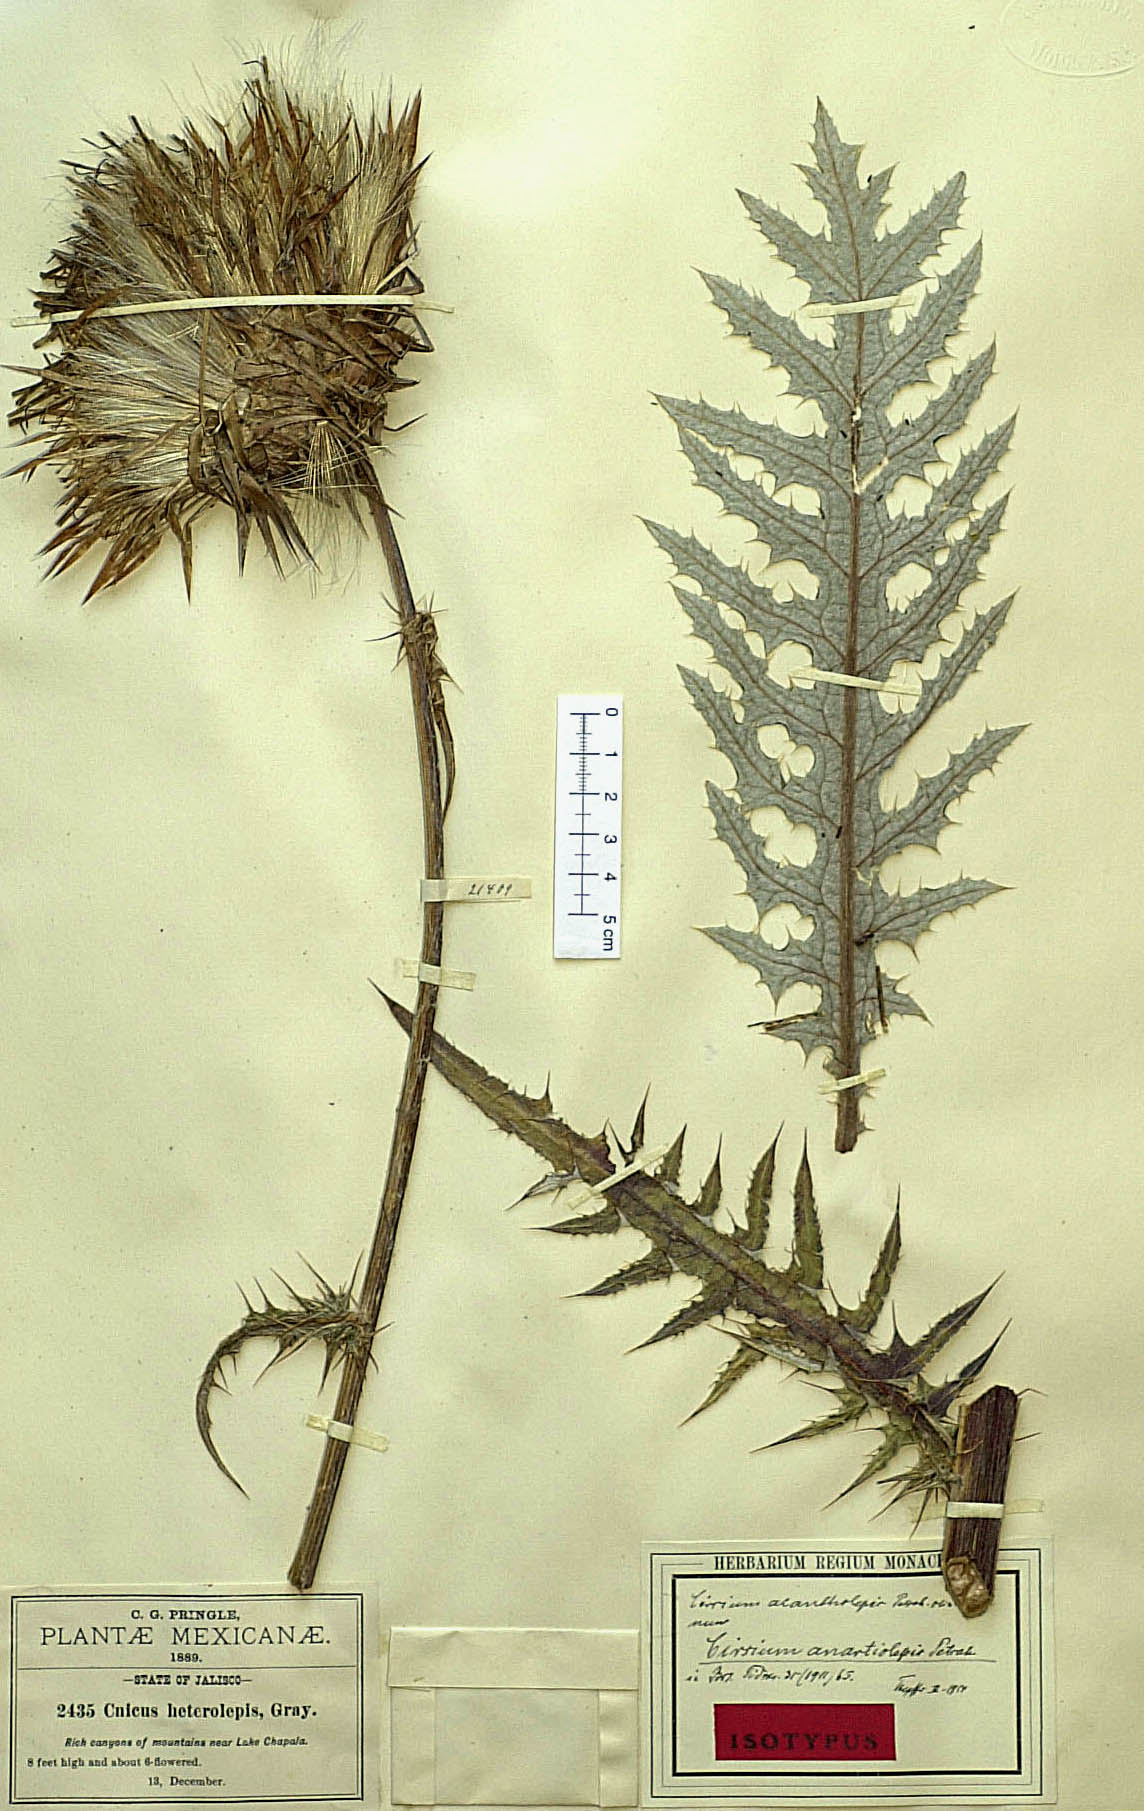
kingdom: Plantae
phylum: Tracheophyta
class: Magnoliopsida
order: Asterales
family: Asteraceae
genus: Cirsium
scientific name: Cirsium conspicuum
